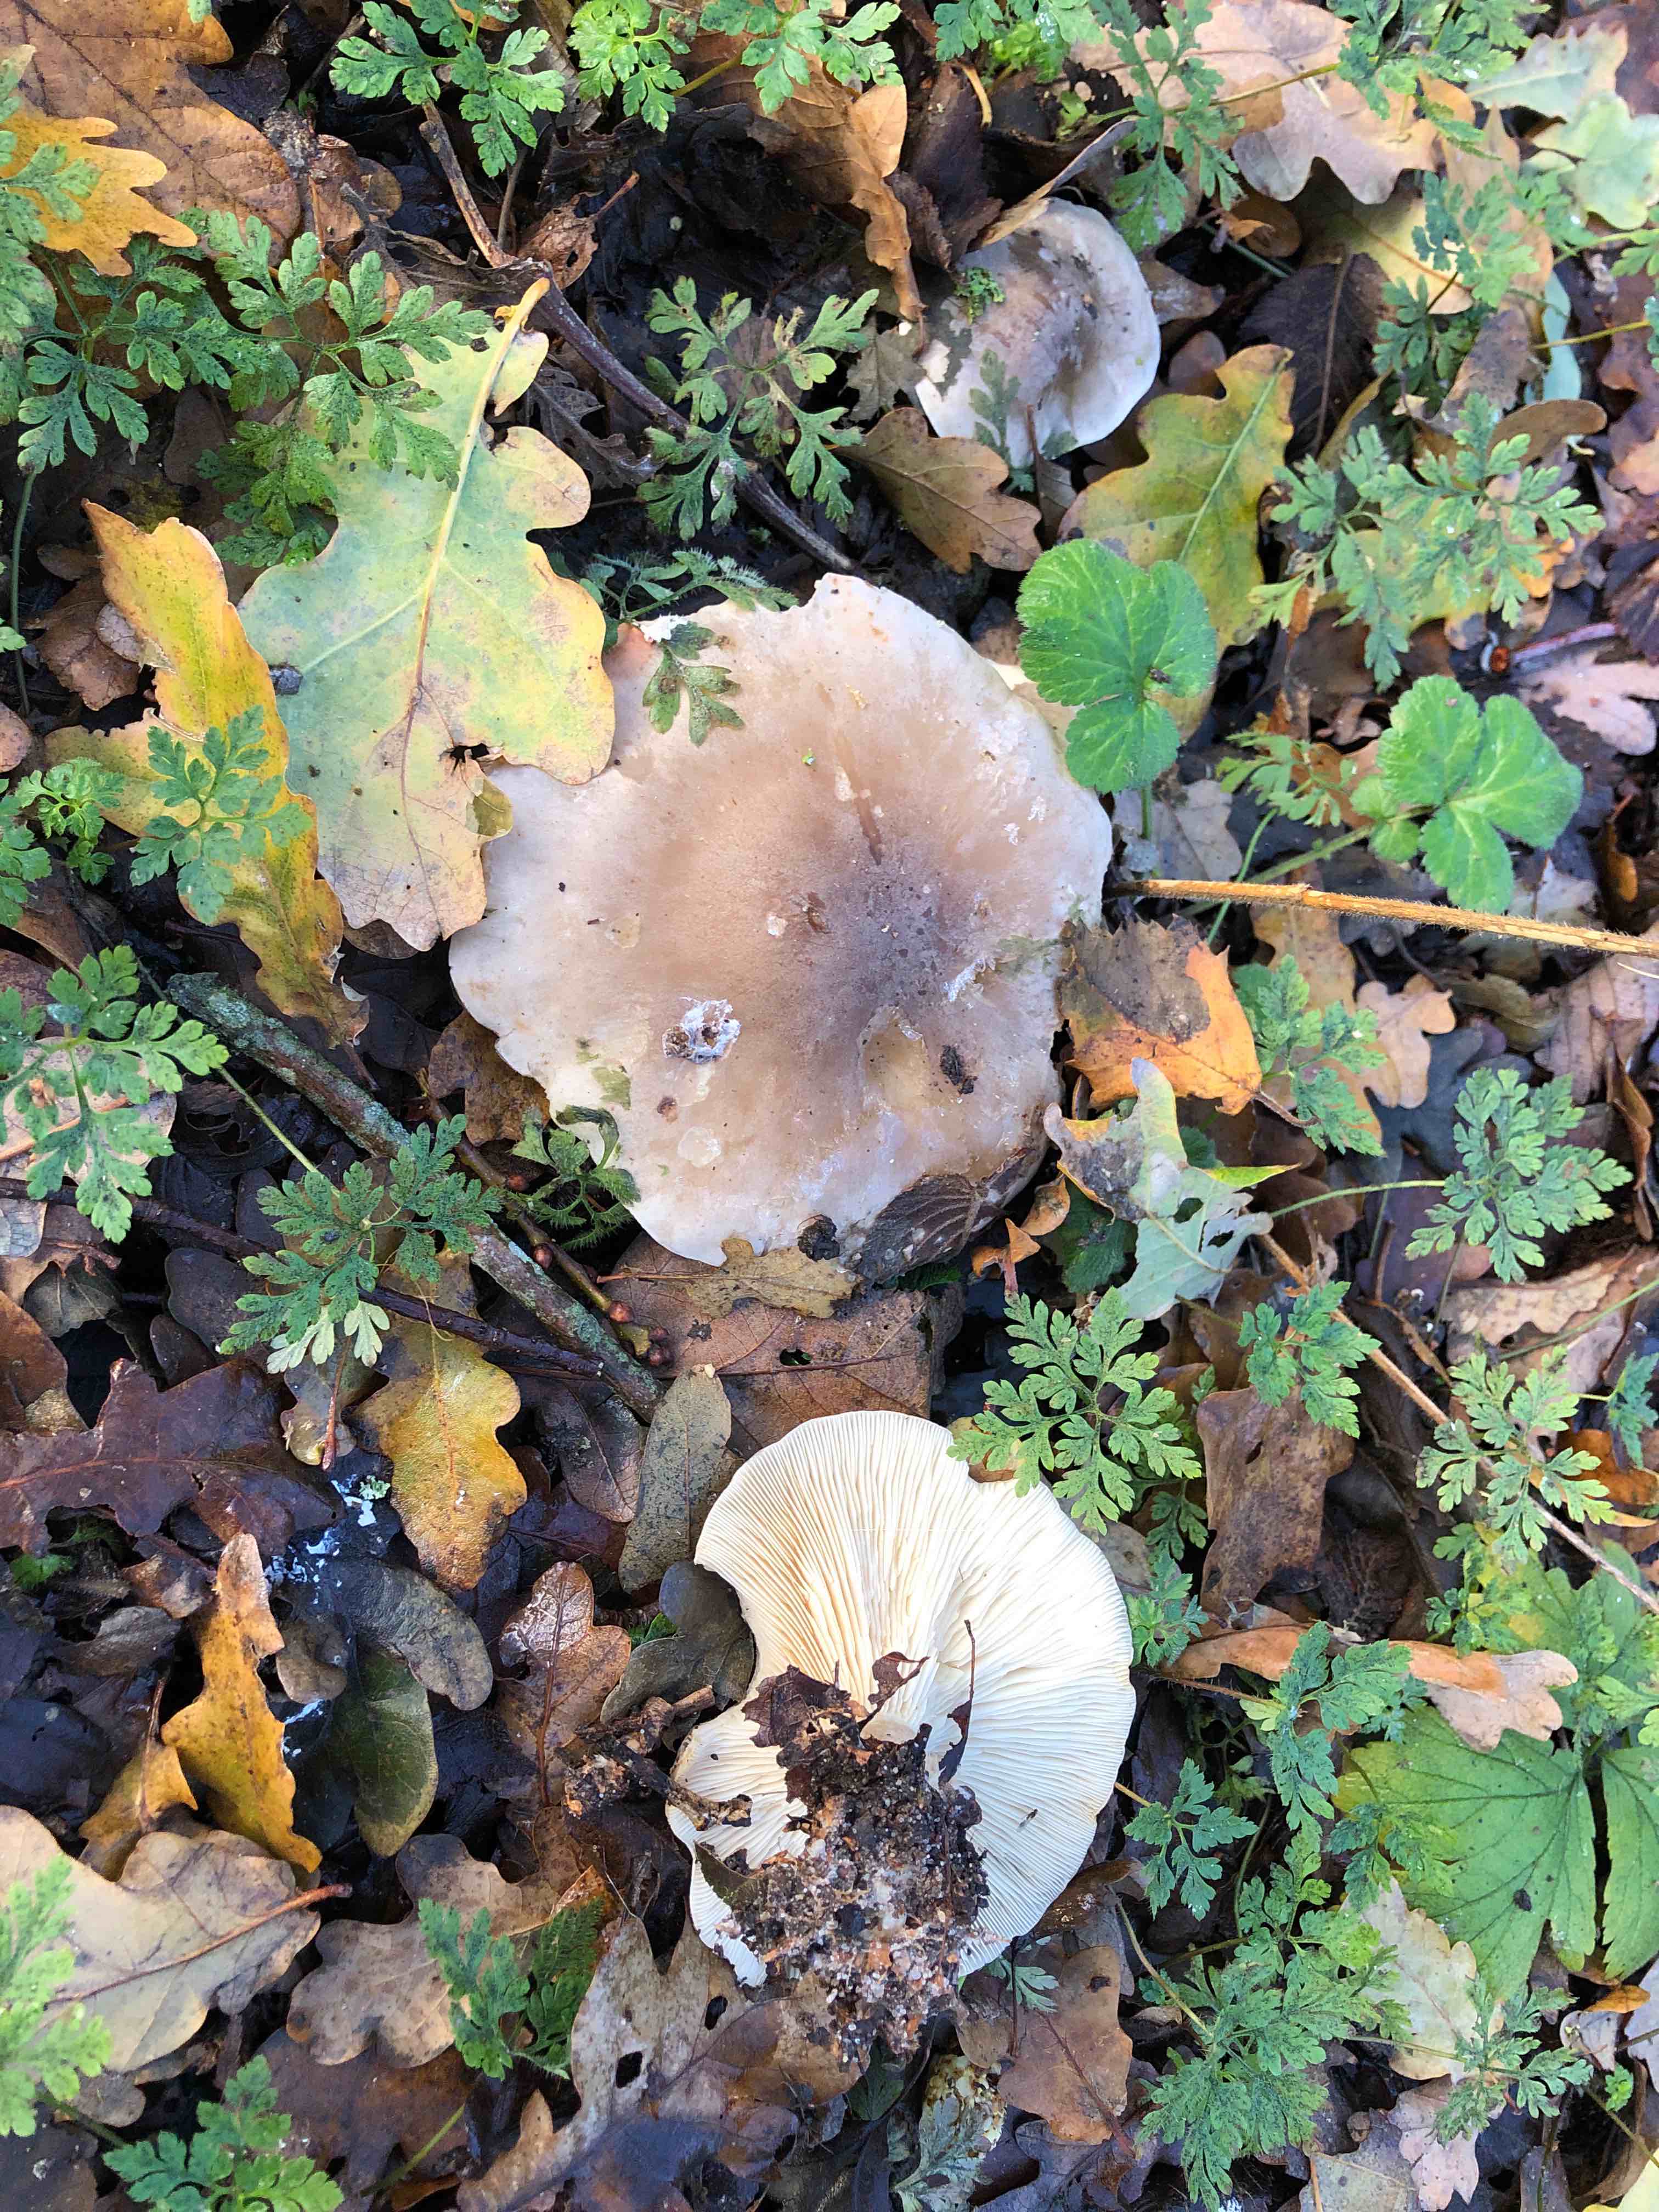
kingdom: Fungi
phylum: Basidiomycota
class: Agaricomycetes
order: Agaricales
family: Tricholomataceae
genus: Clitocybe
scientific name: Clitocybe nebularis
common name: tåge-tragthat
